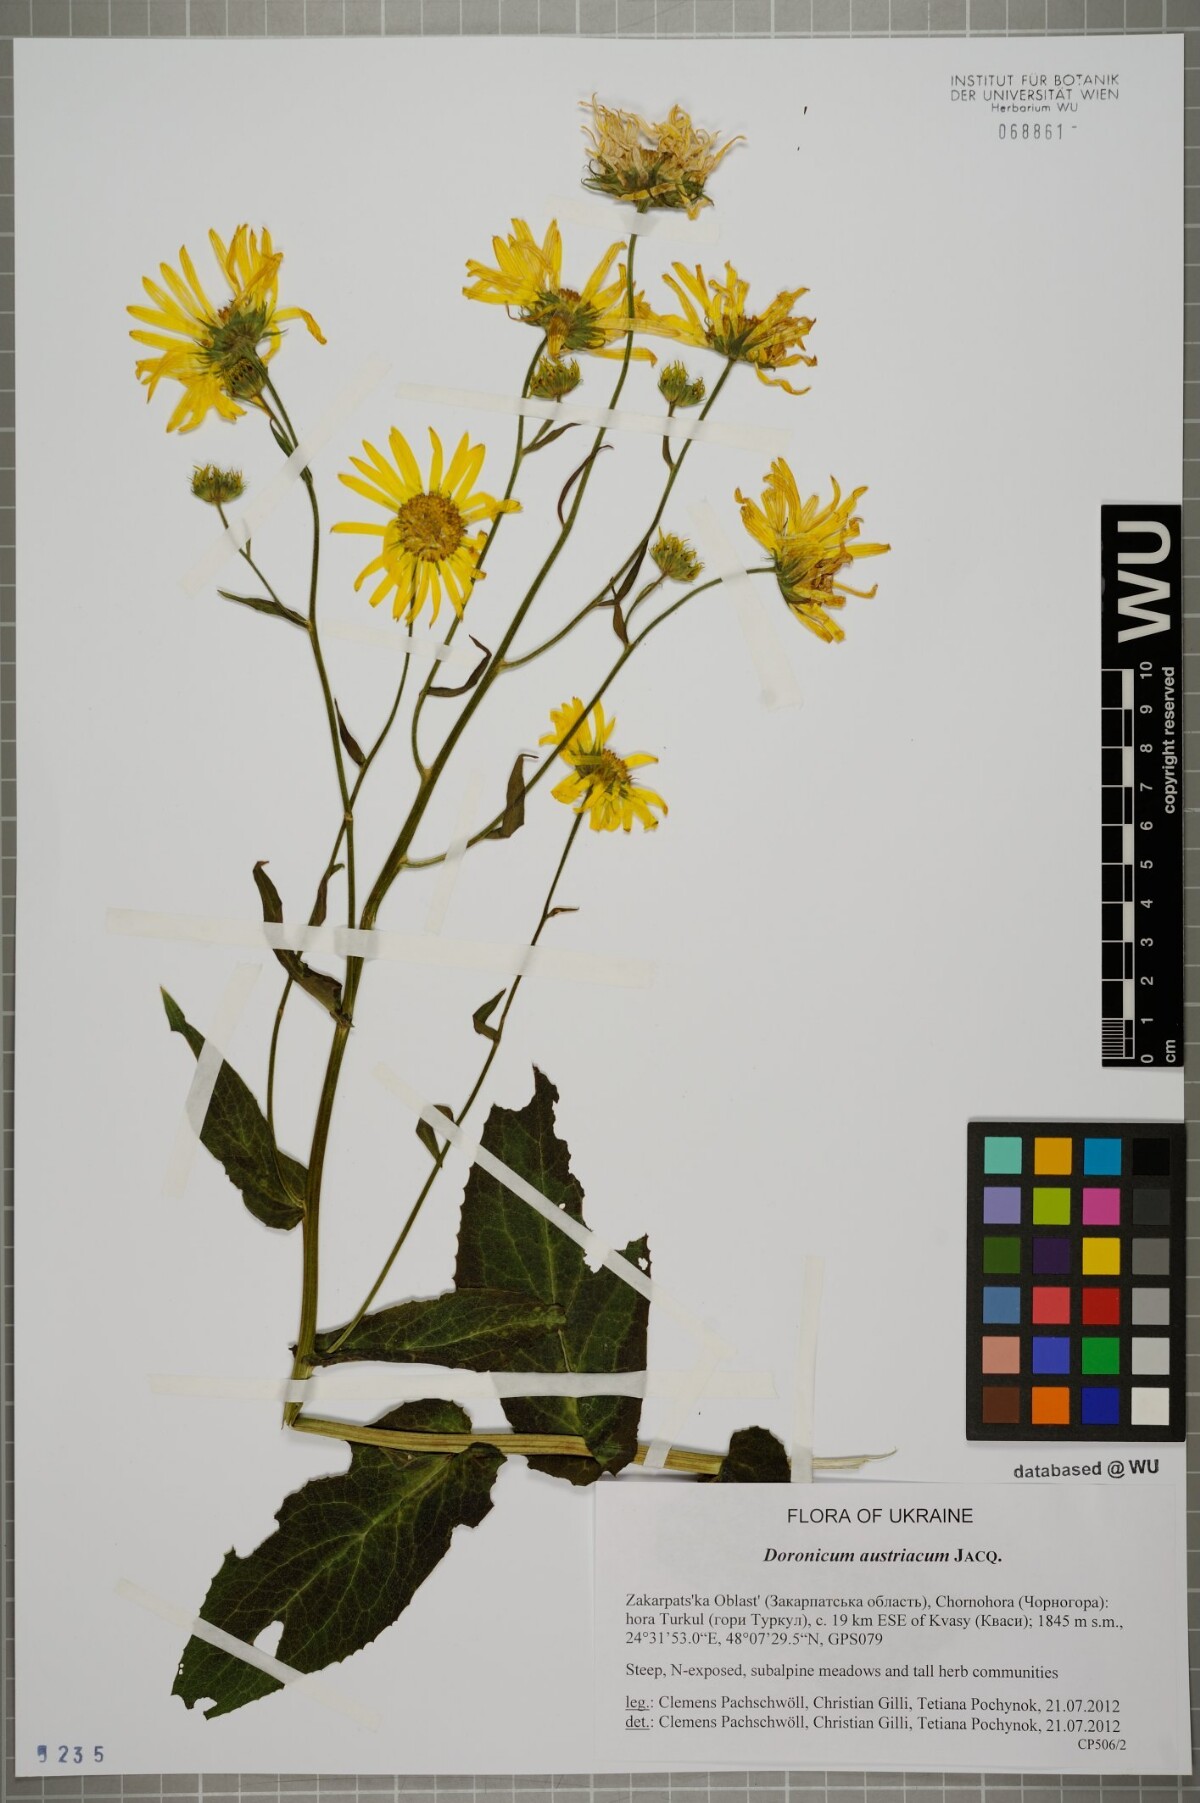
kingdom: Plantae
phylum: Tracheophyta
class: Magnoliopsida
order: Asterales
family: Asteraceae
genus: Doronicum
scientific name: Doronicum austriacum
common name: Austrian leopard's-bane
